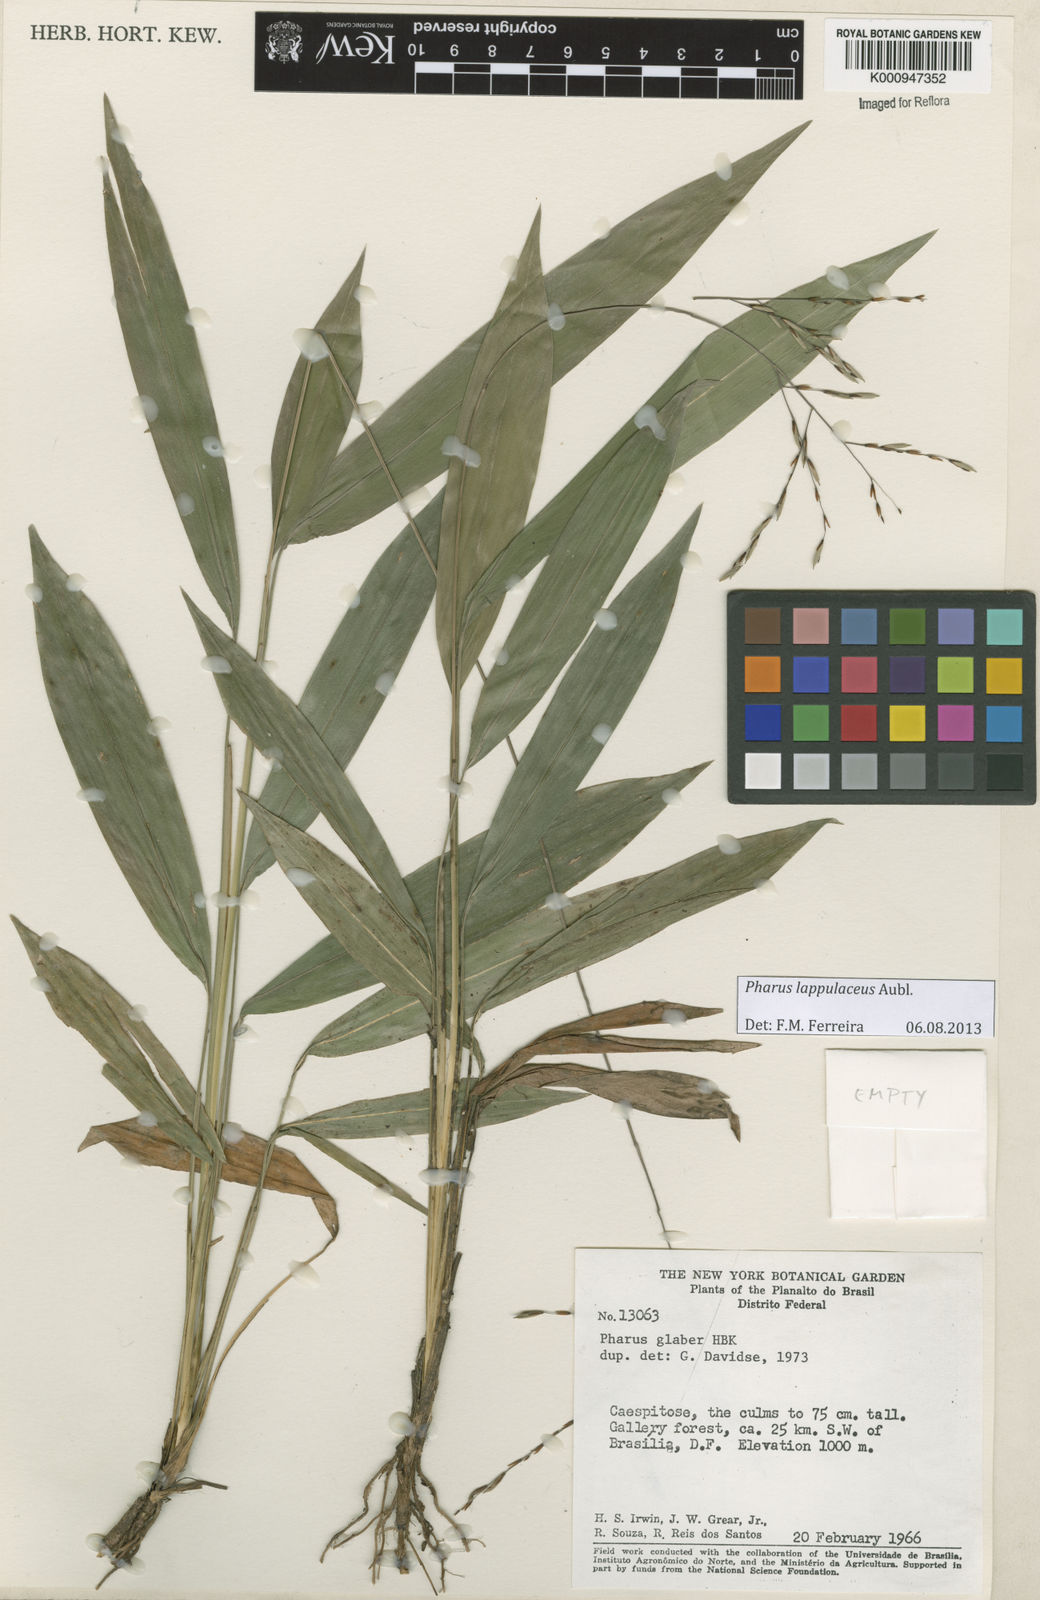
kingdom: Plantae
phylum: Tracheophyta
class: Liliopsida
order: Poales
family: Poaceae
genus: Pharus
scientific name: Pharus lappulaceus
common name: Creeping leafstalk grass
